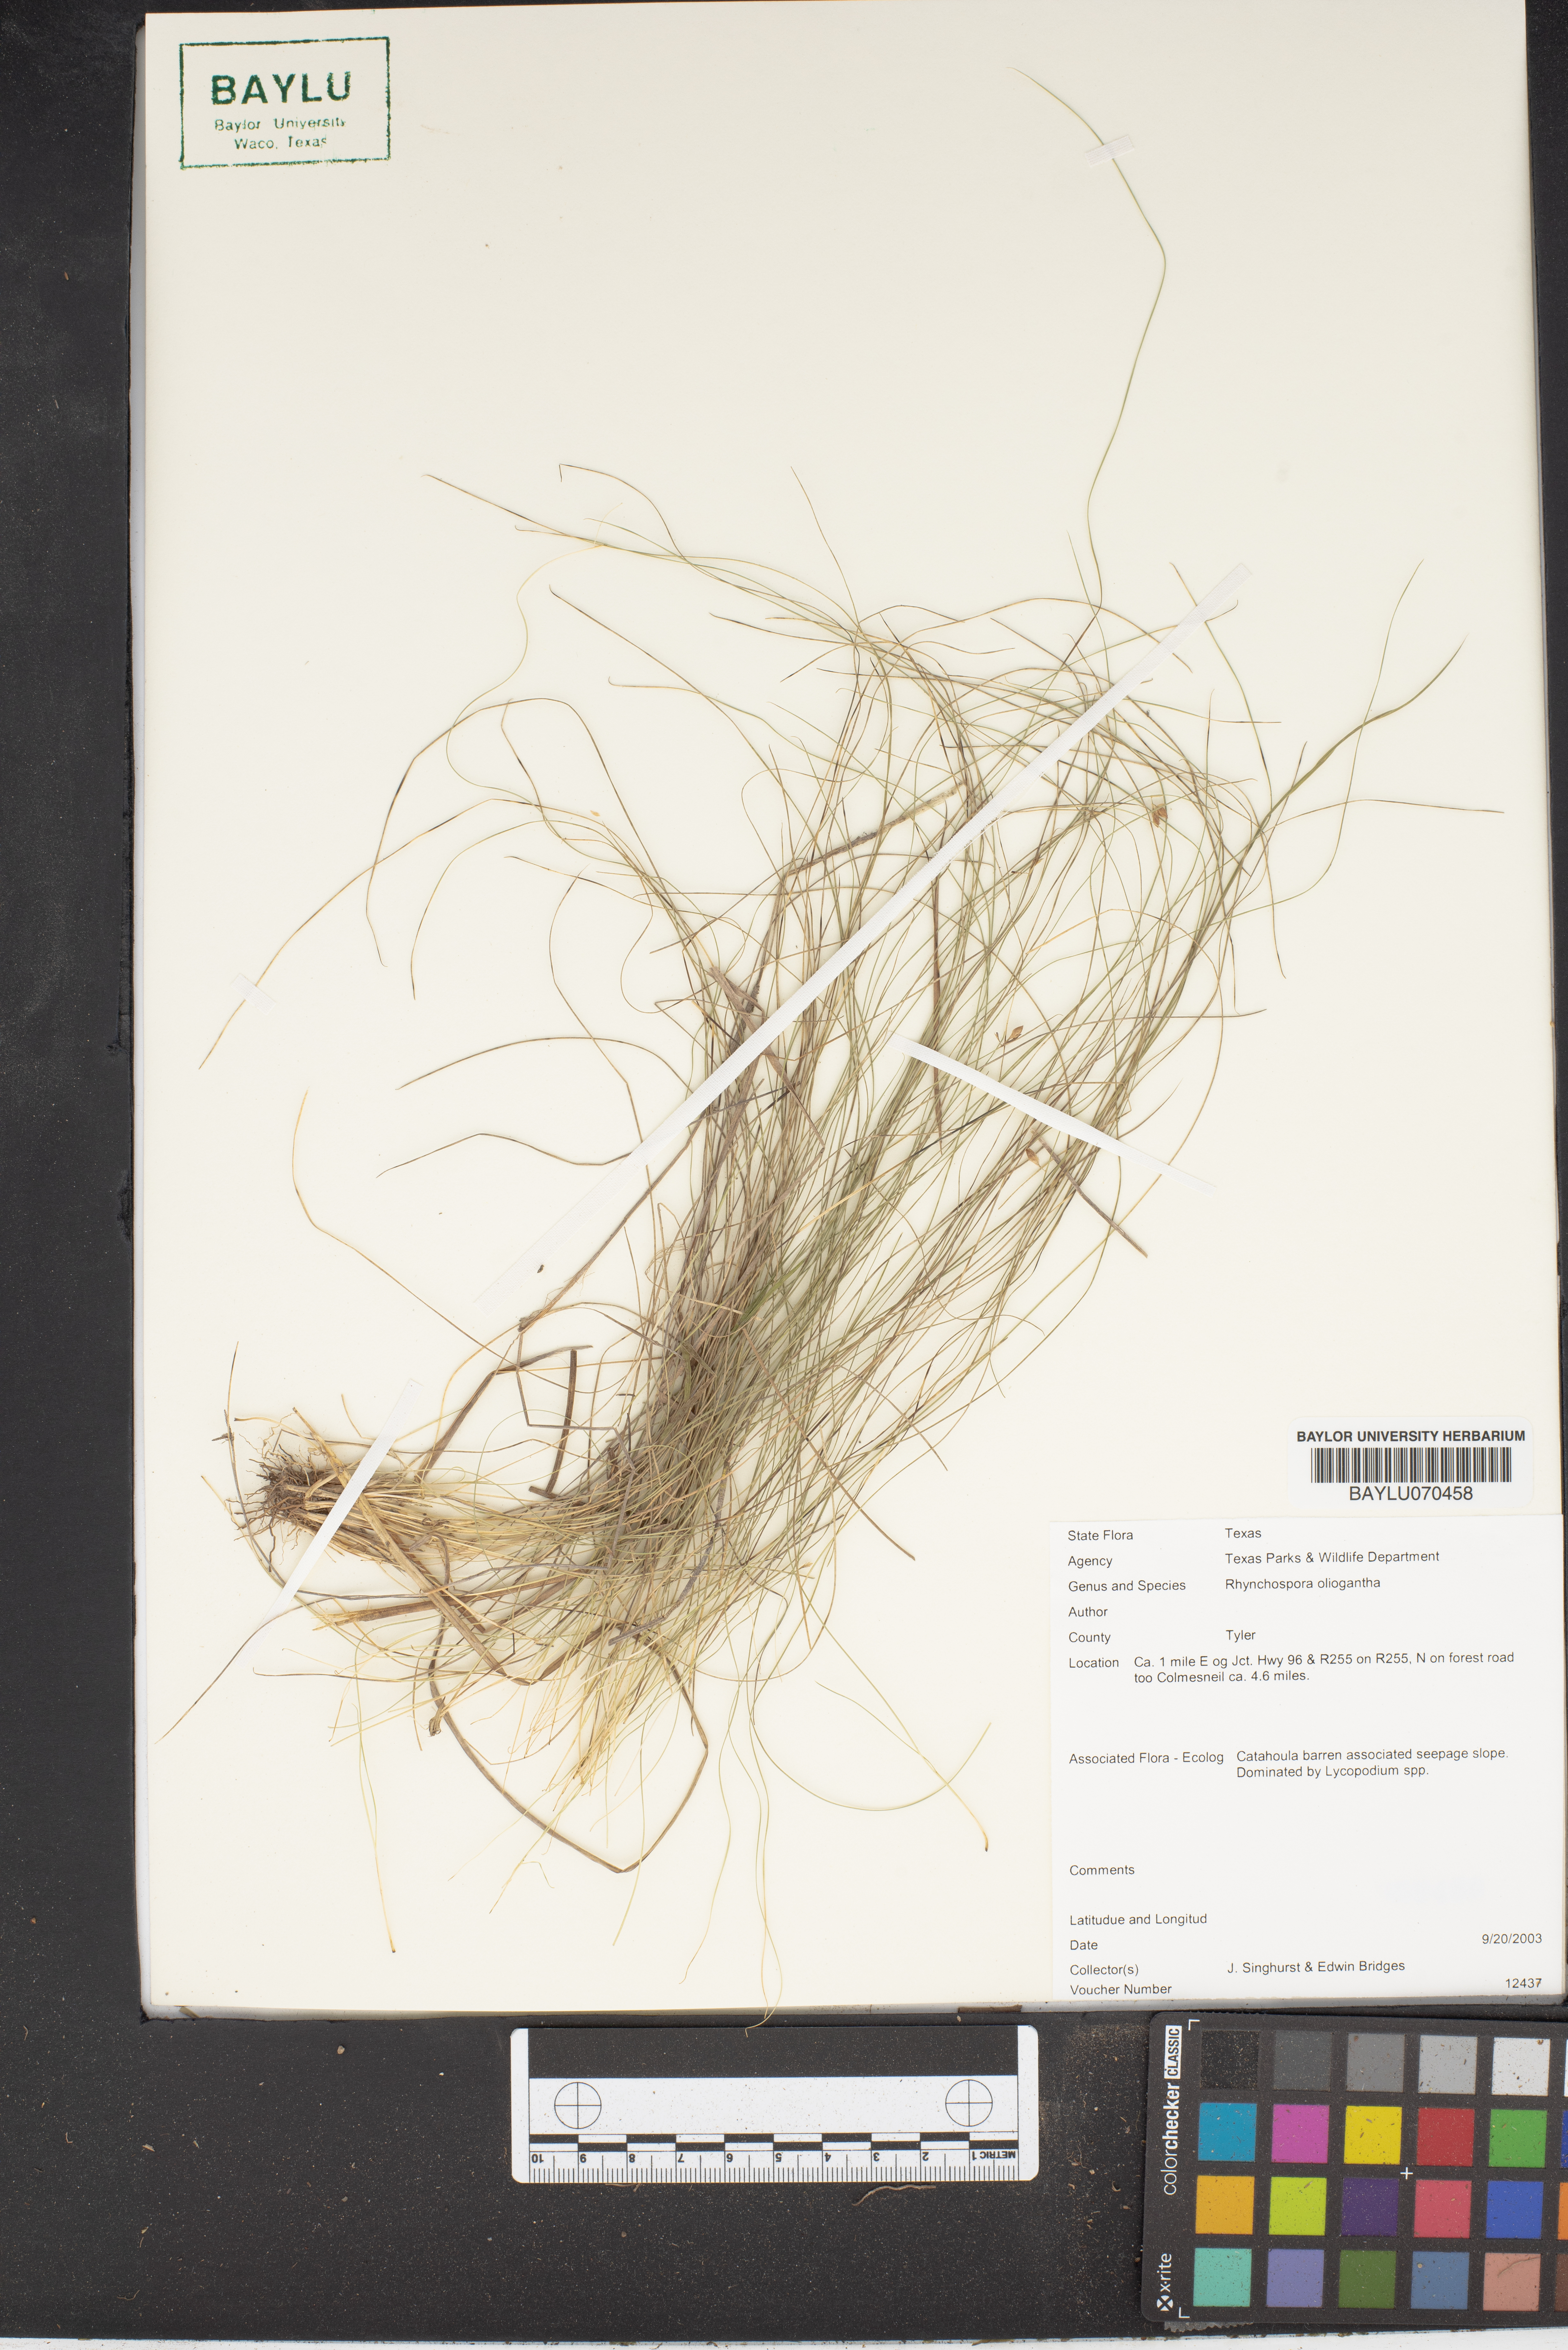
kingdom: Plantae
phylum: Tracheophyta
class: Liliopsida
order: Poales
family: Cyperaceae
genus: Rhynchospora
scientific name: Rhynchospora oligantha
